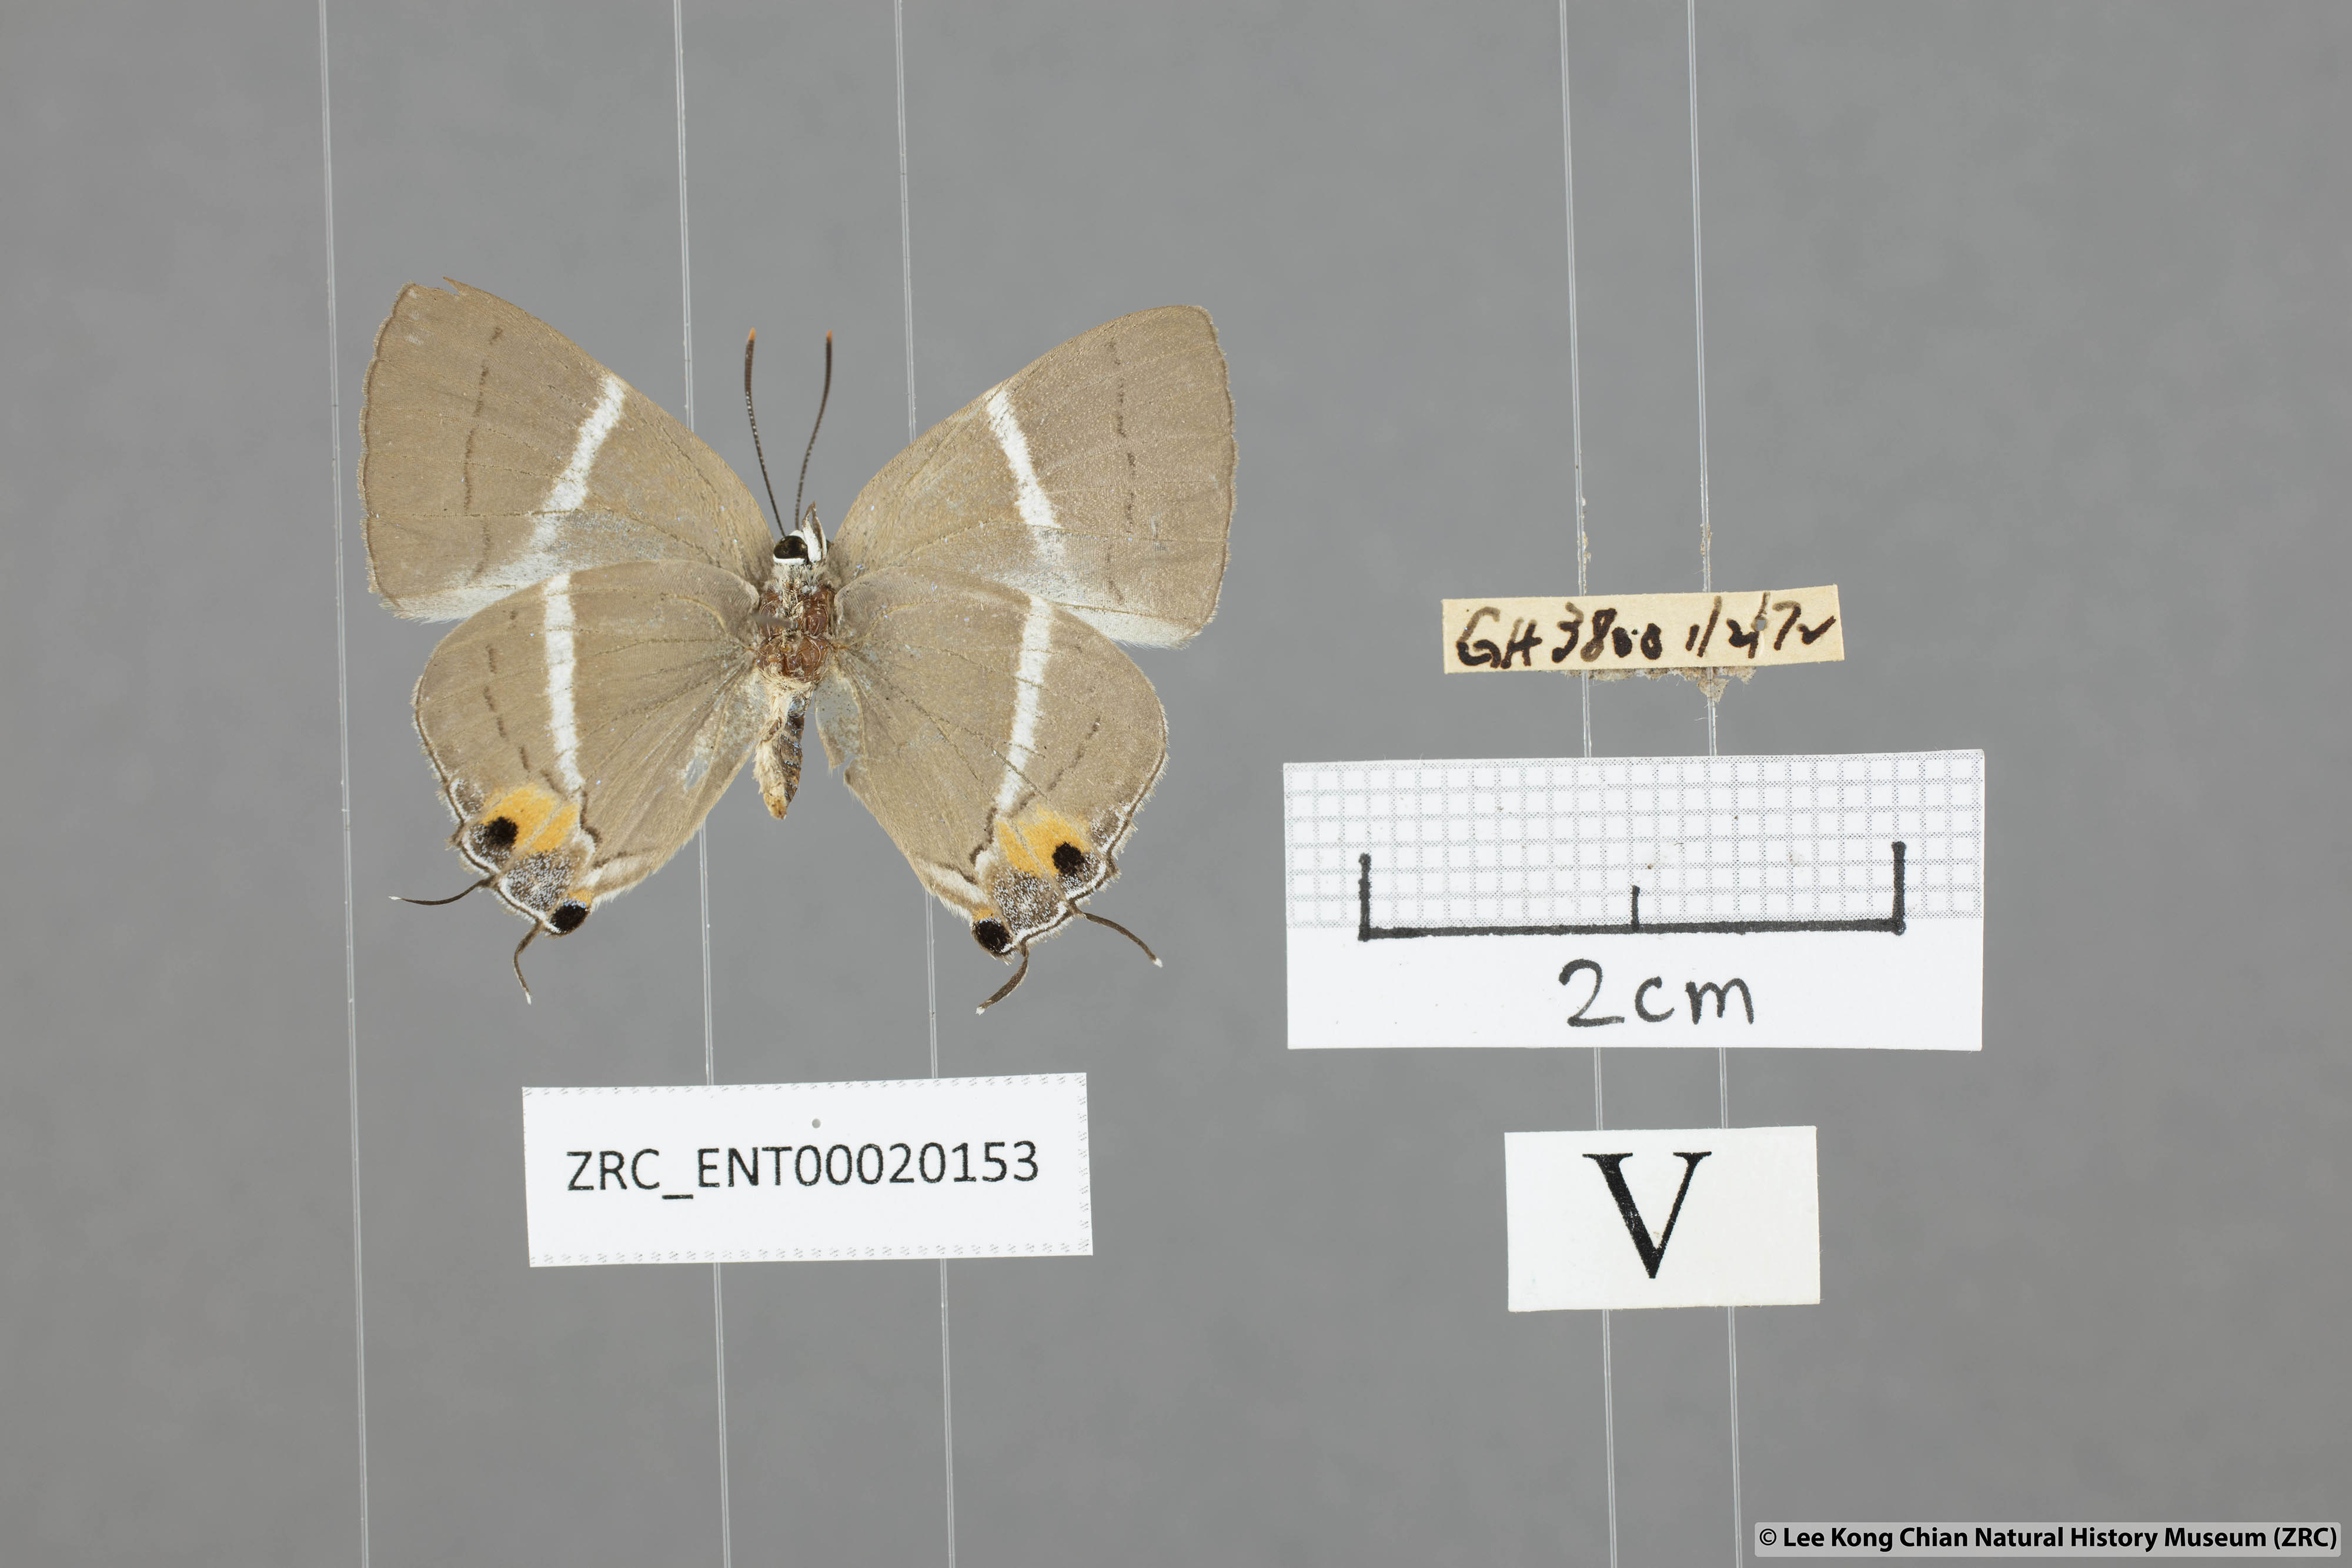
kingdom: Animalia
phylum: Arthropoda
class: Insecta
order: Lepidoptera
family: Lycaenidae
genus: Dacalana
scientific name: Dacalana
